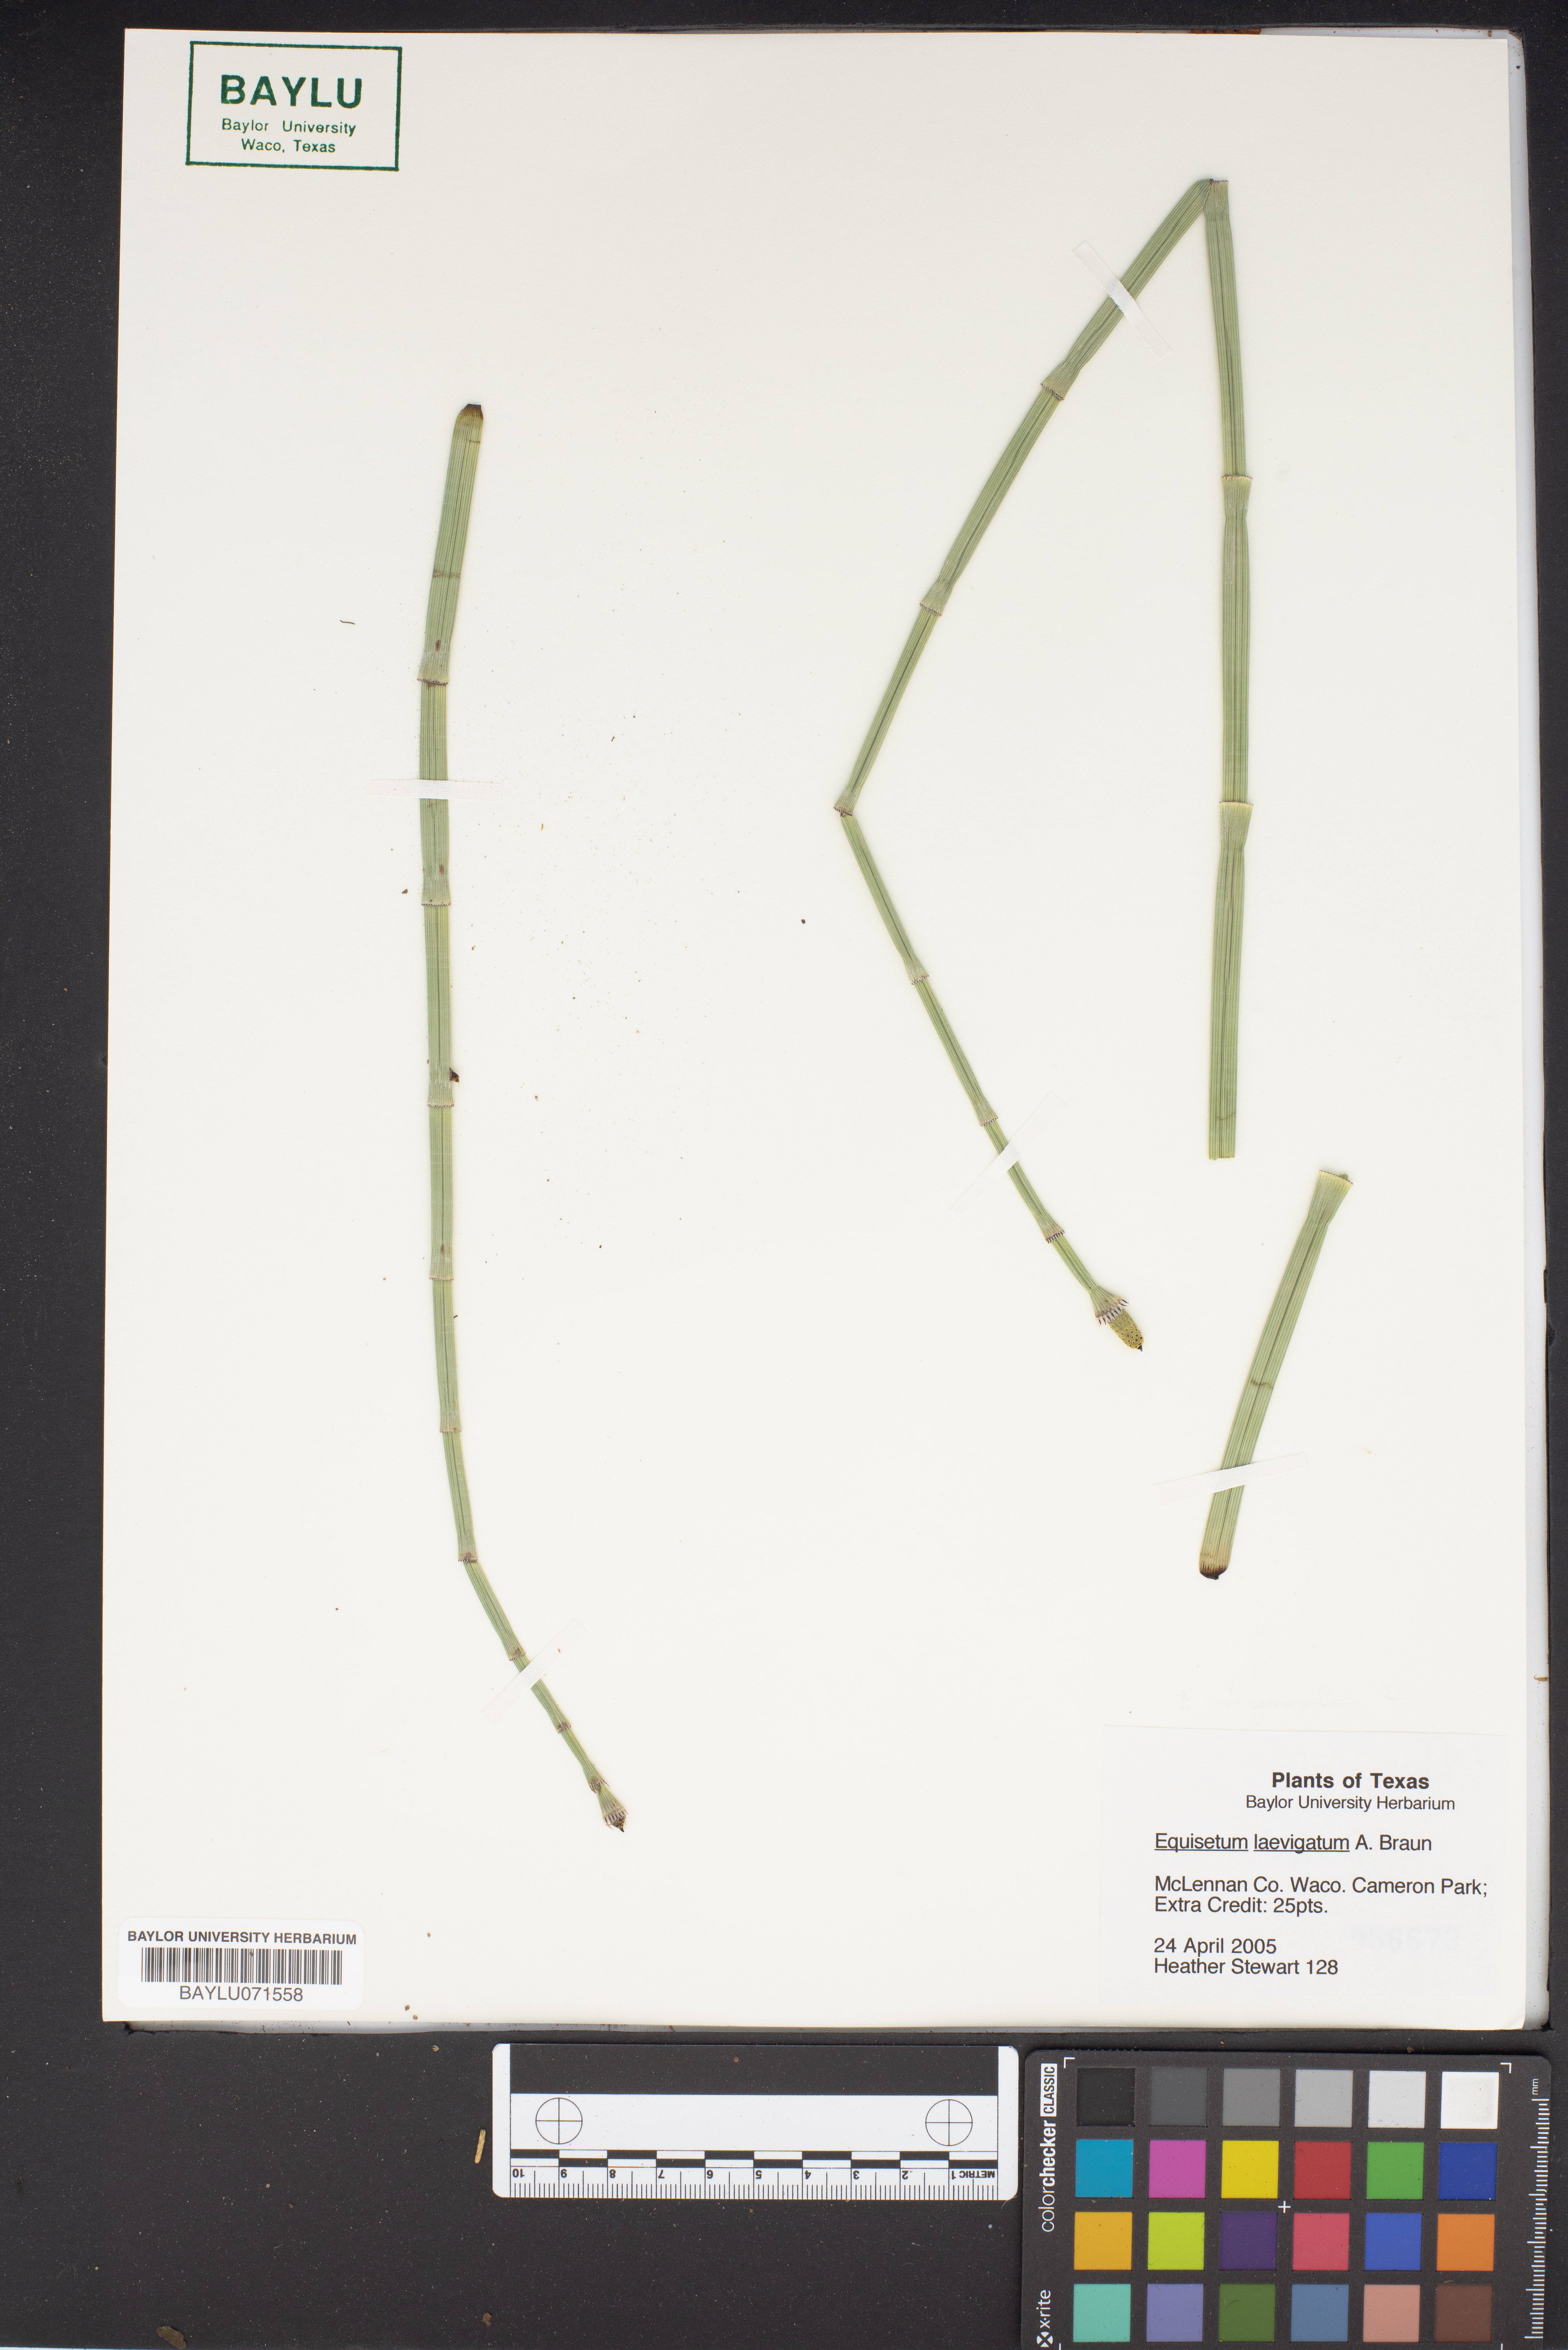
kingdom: Plantae
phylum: Tracheophyta
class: Polypodiopsida
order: Equisetales
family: Equisetaceae
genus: Equisetum
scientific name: Equisetum laevigatum
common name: Smooth scouring-rush
